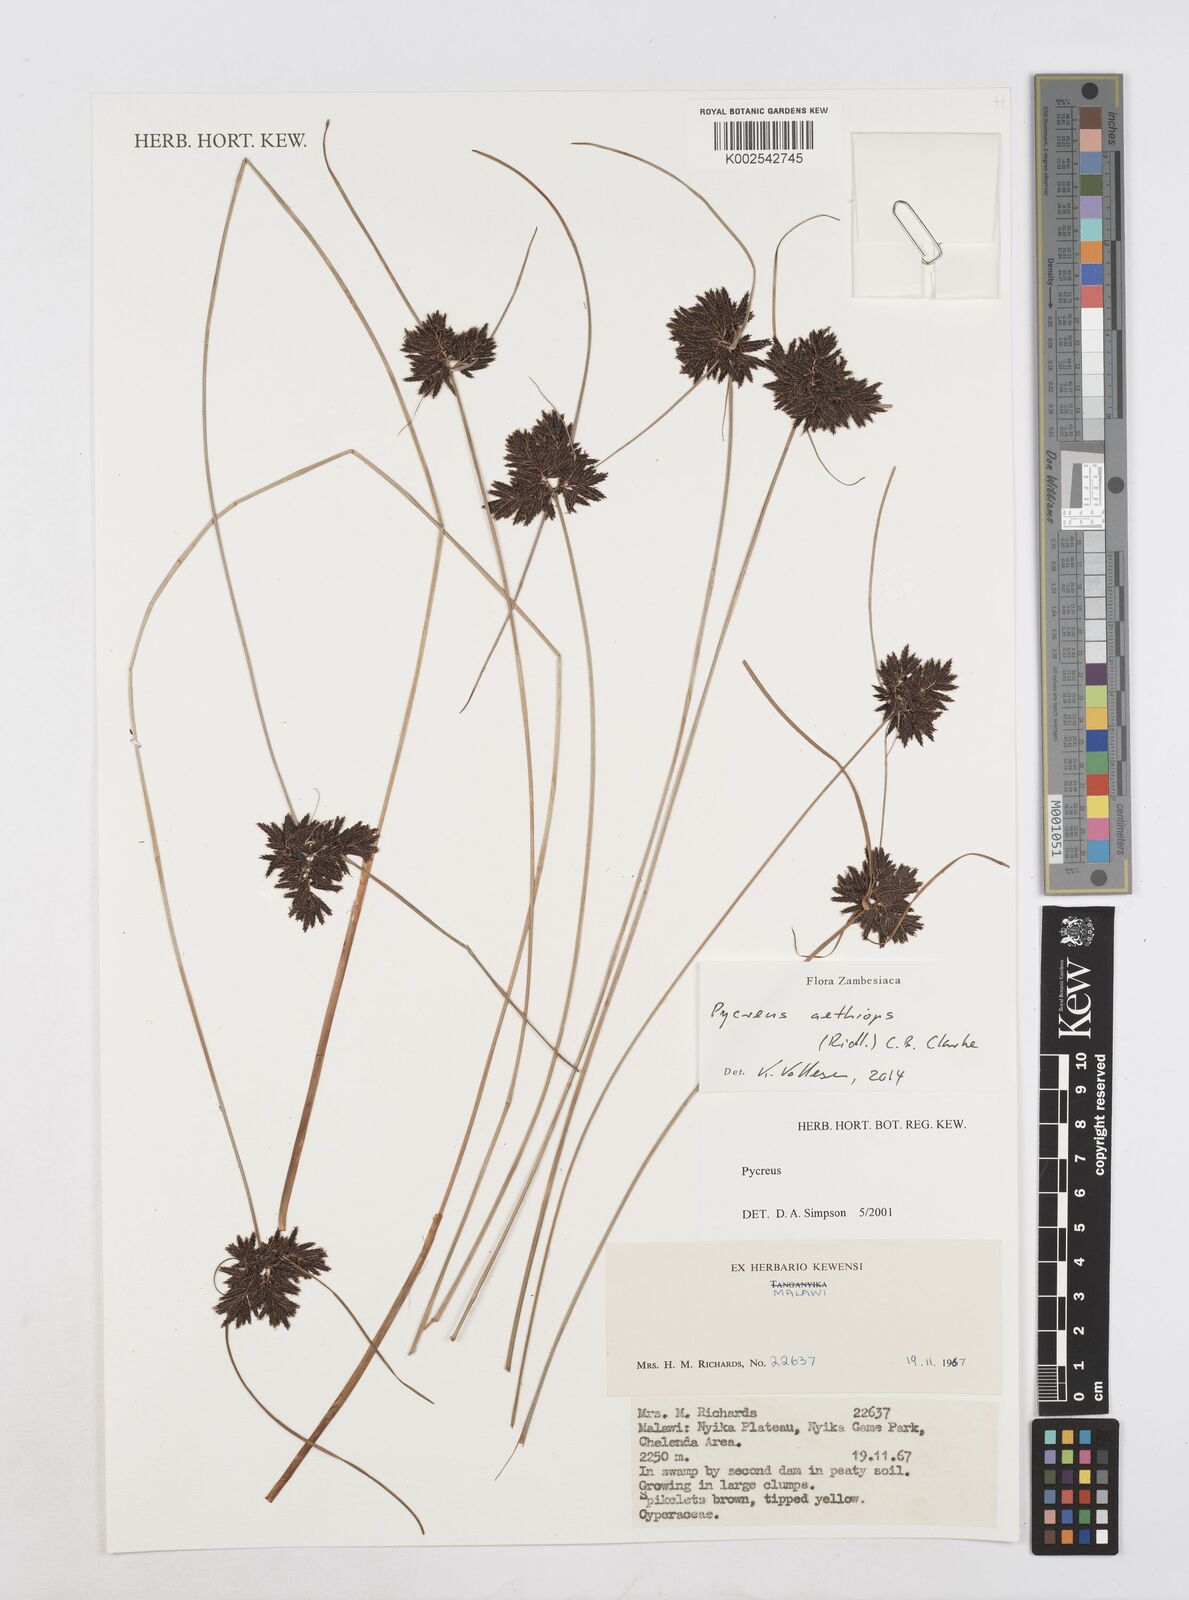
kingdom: Plantae
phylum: Tracheophyta
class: Liliopsida
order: Poales
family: Cyperaceae
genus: Cyperus
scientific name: Cyperus aethiops
